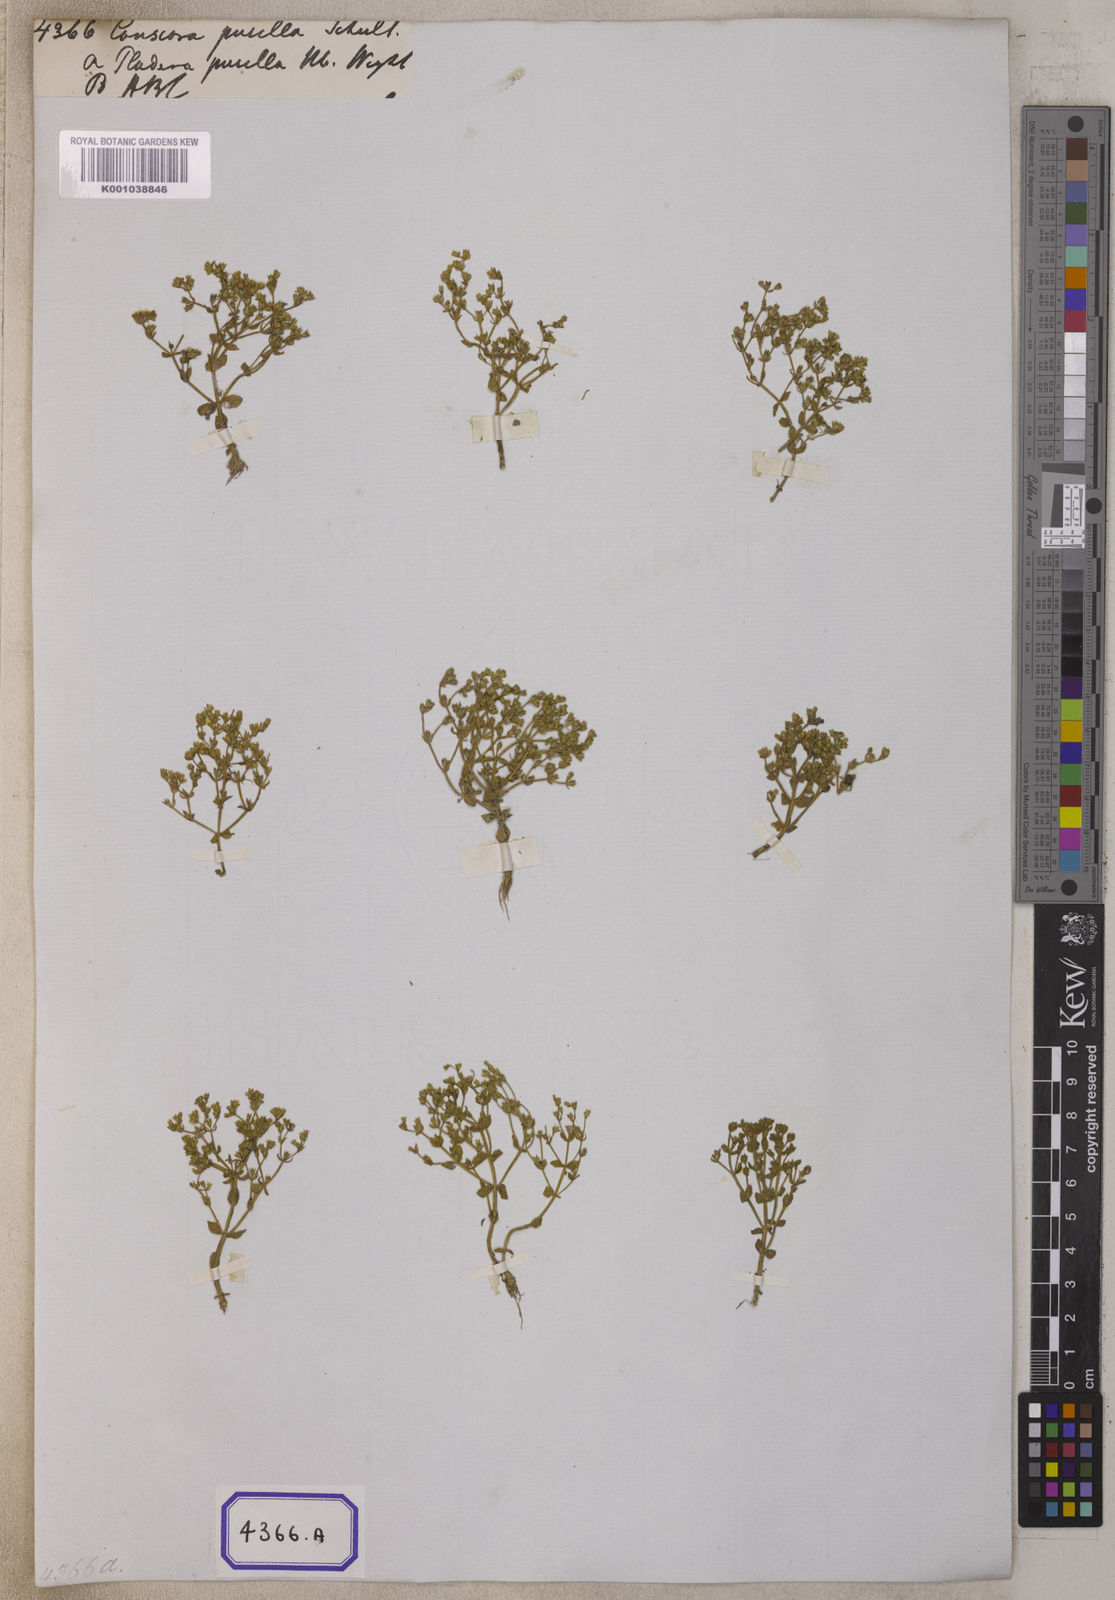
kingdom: Plantae
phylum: Tracheophyta
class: Magnoliopsida
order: Gentianales
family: Gentianaceae
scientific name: Gentianaceae
